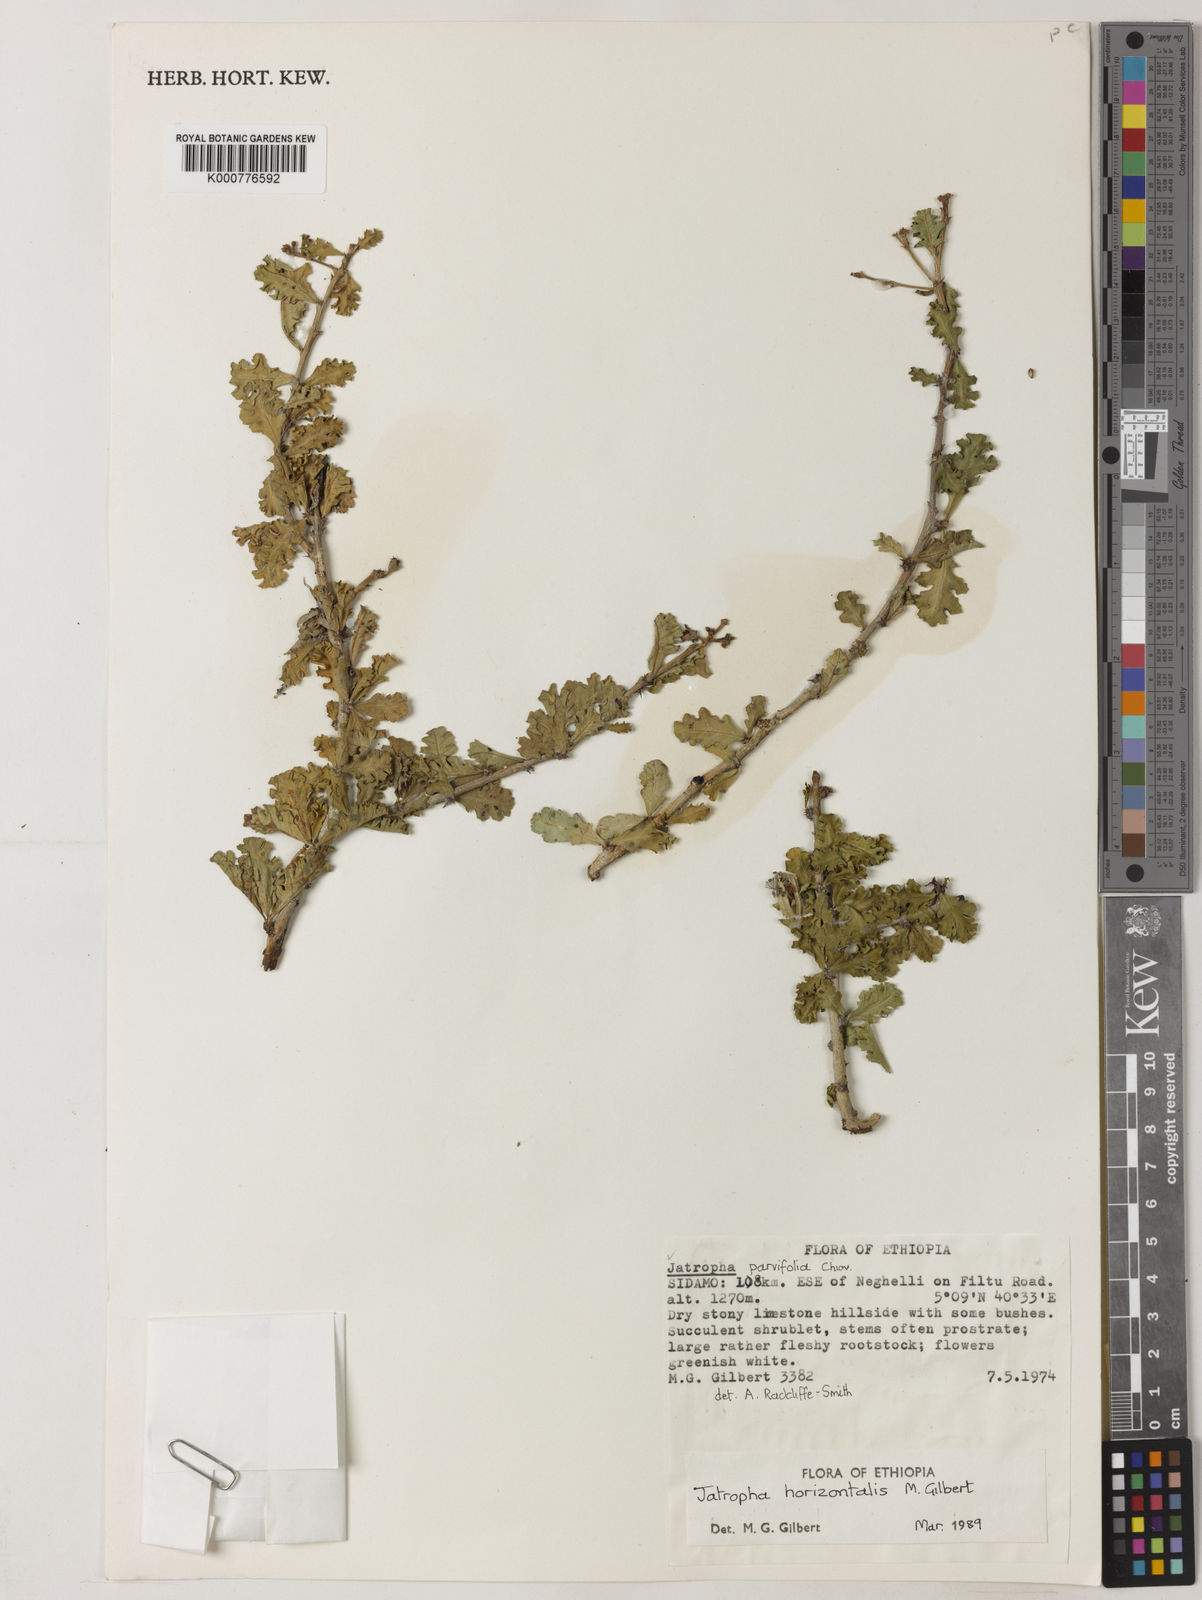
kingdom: Plantae
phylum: Tracheophyta
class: Magnoliopsida
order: Malpighiales
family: Euphorbiaceae
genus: Jatropha
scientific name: Jatropha horizontalis
